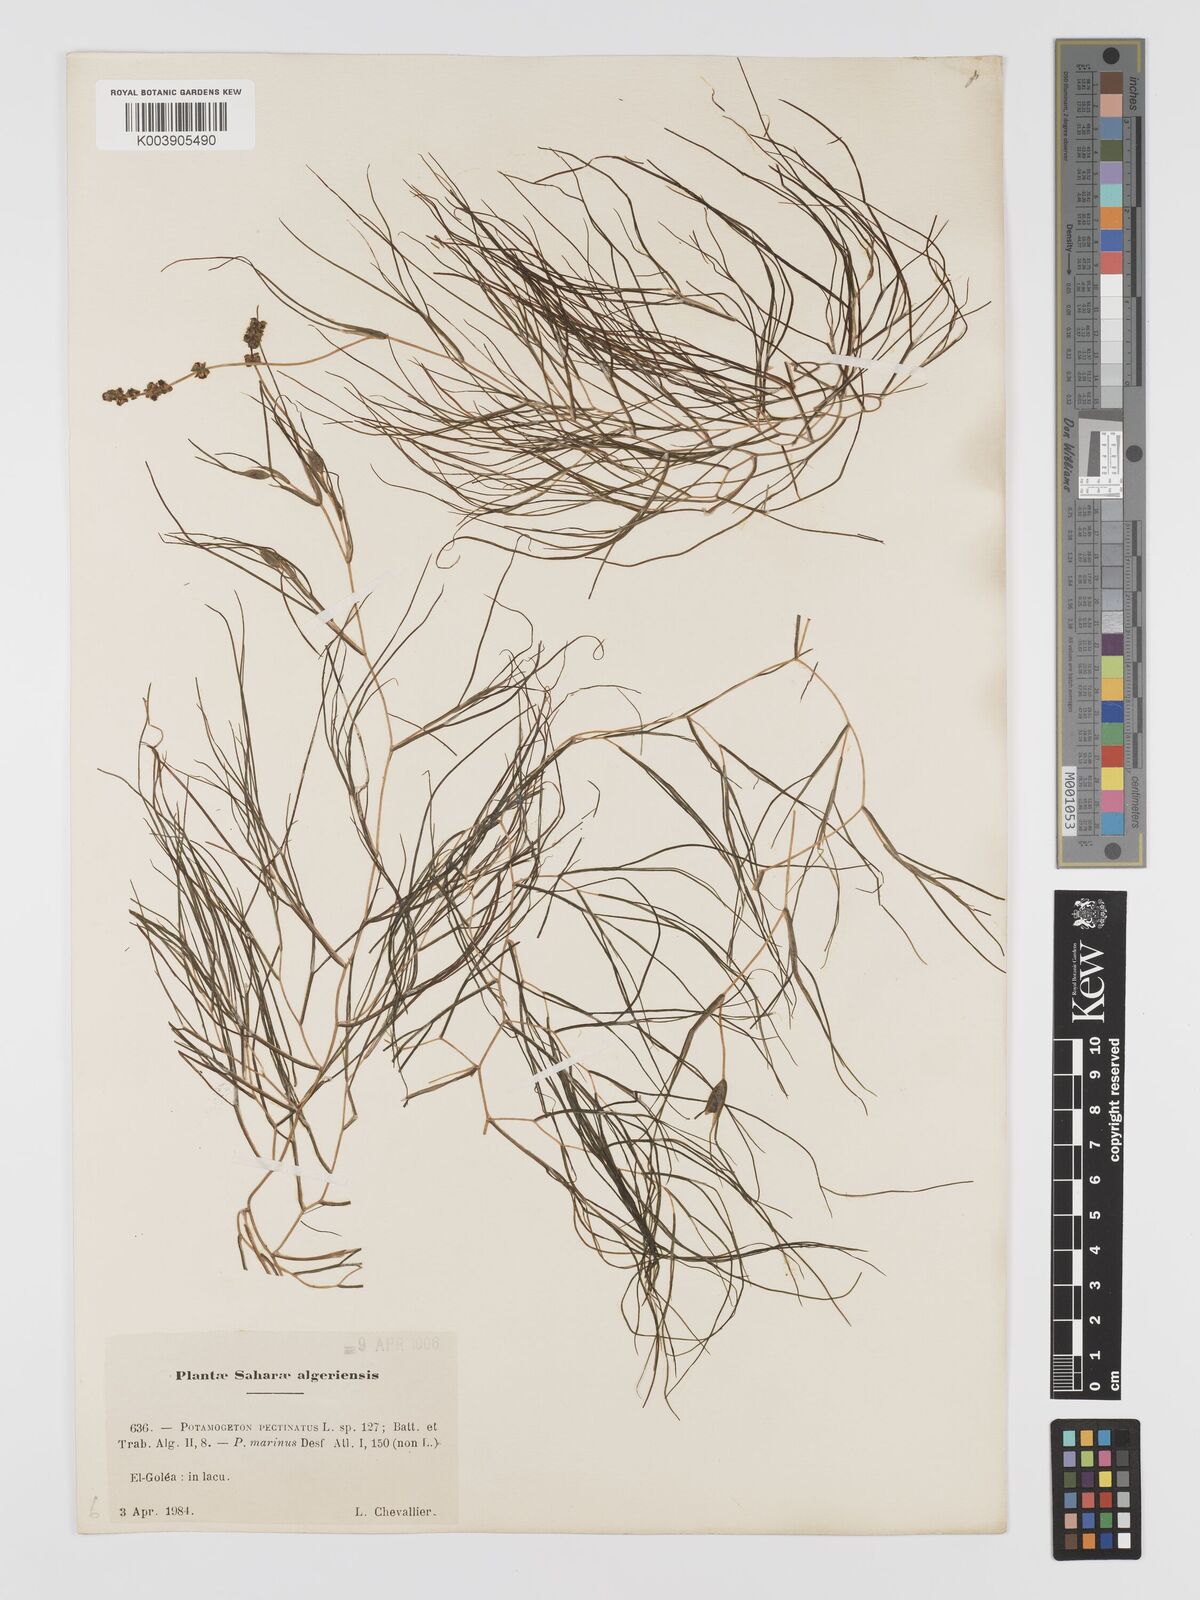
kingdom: Plantae
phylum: Tracheophyta
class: Liliopsida
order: Alismatales
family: Potamogetonaceae
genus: Stuckenia
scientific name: Stuckenia pectinata
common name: Sago pondweed
